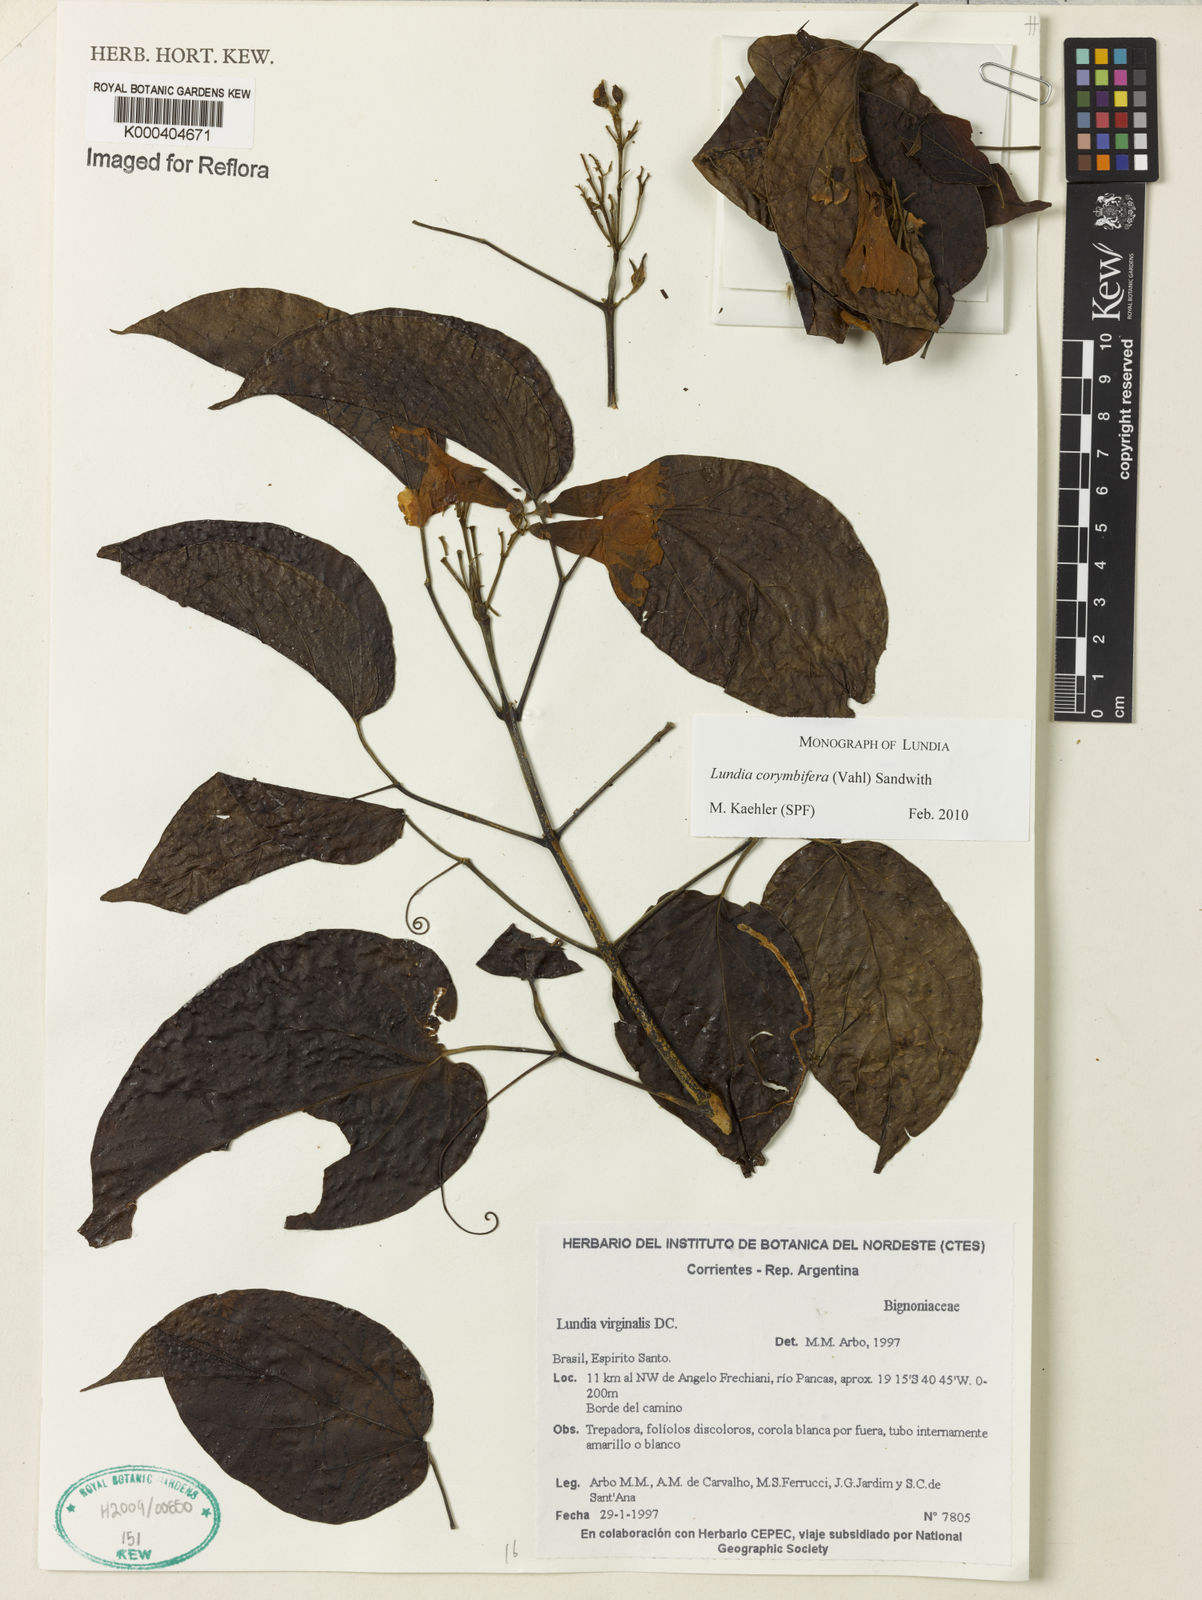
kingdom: Plantae
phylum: Tracheophyta
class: Magnoliopsida
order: Lamiales
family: Bignoniaceae
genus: Lundia
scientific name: Lundia corymbifera
